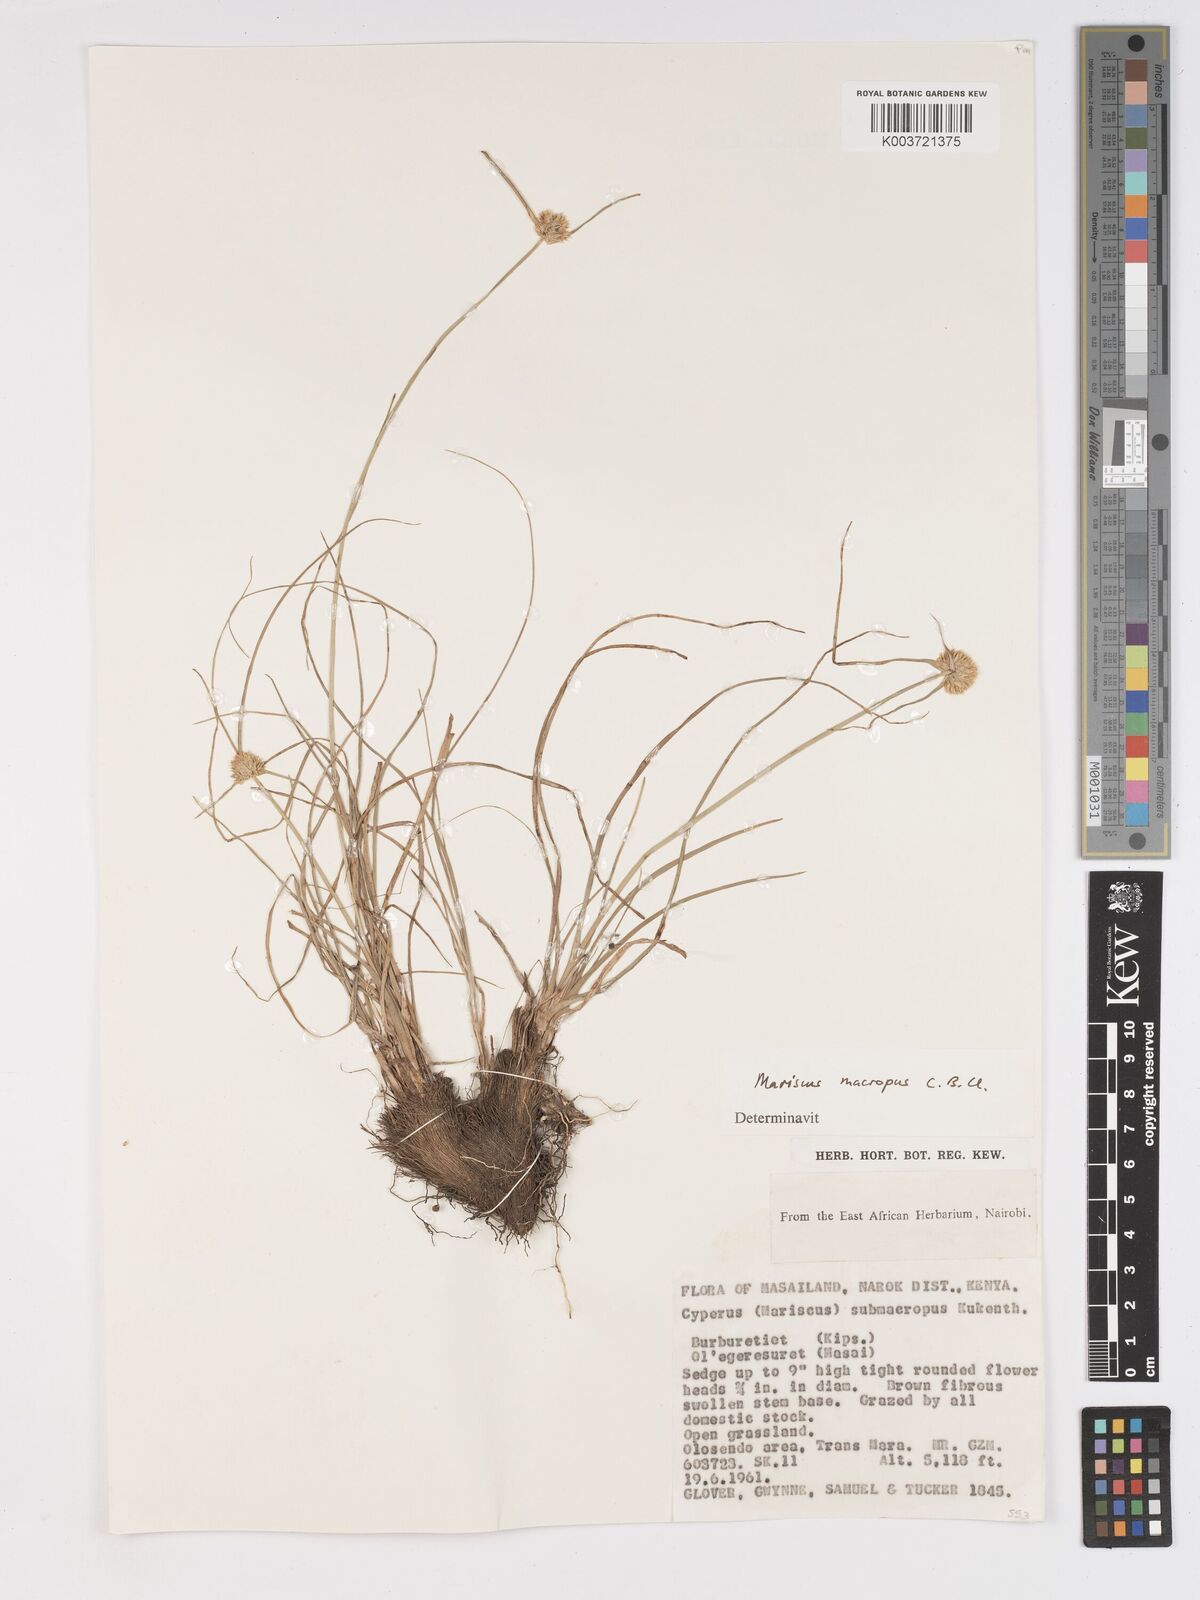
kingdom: Plantae
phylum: Tracheophyta
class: Liliopsida
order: Poales
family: Cyperaceae
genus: Cyperus
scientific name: Cyperus mollipes
